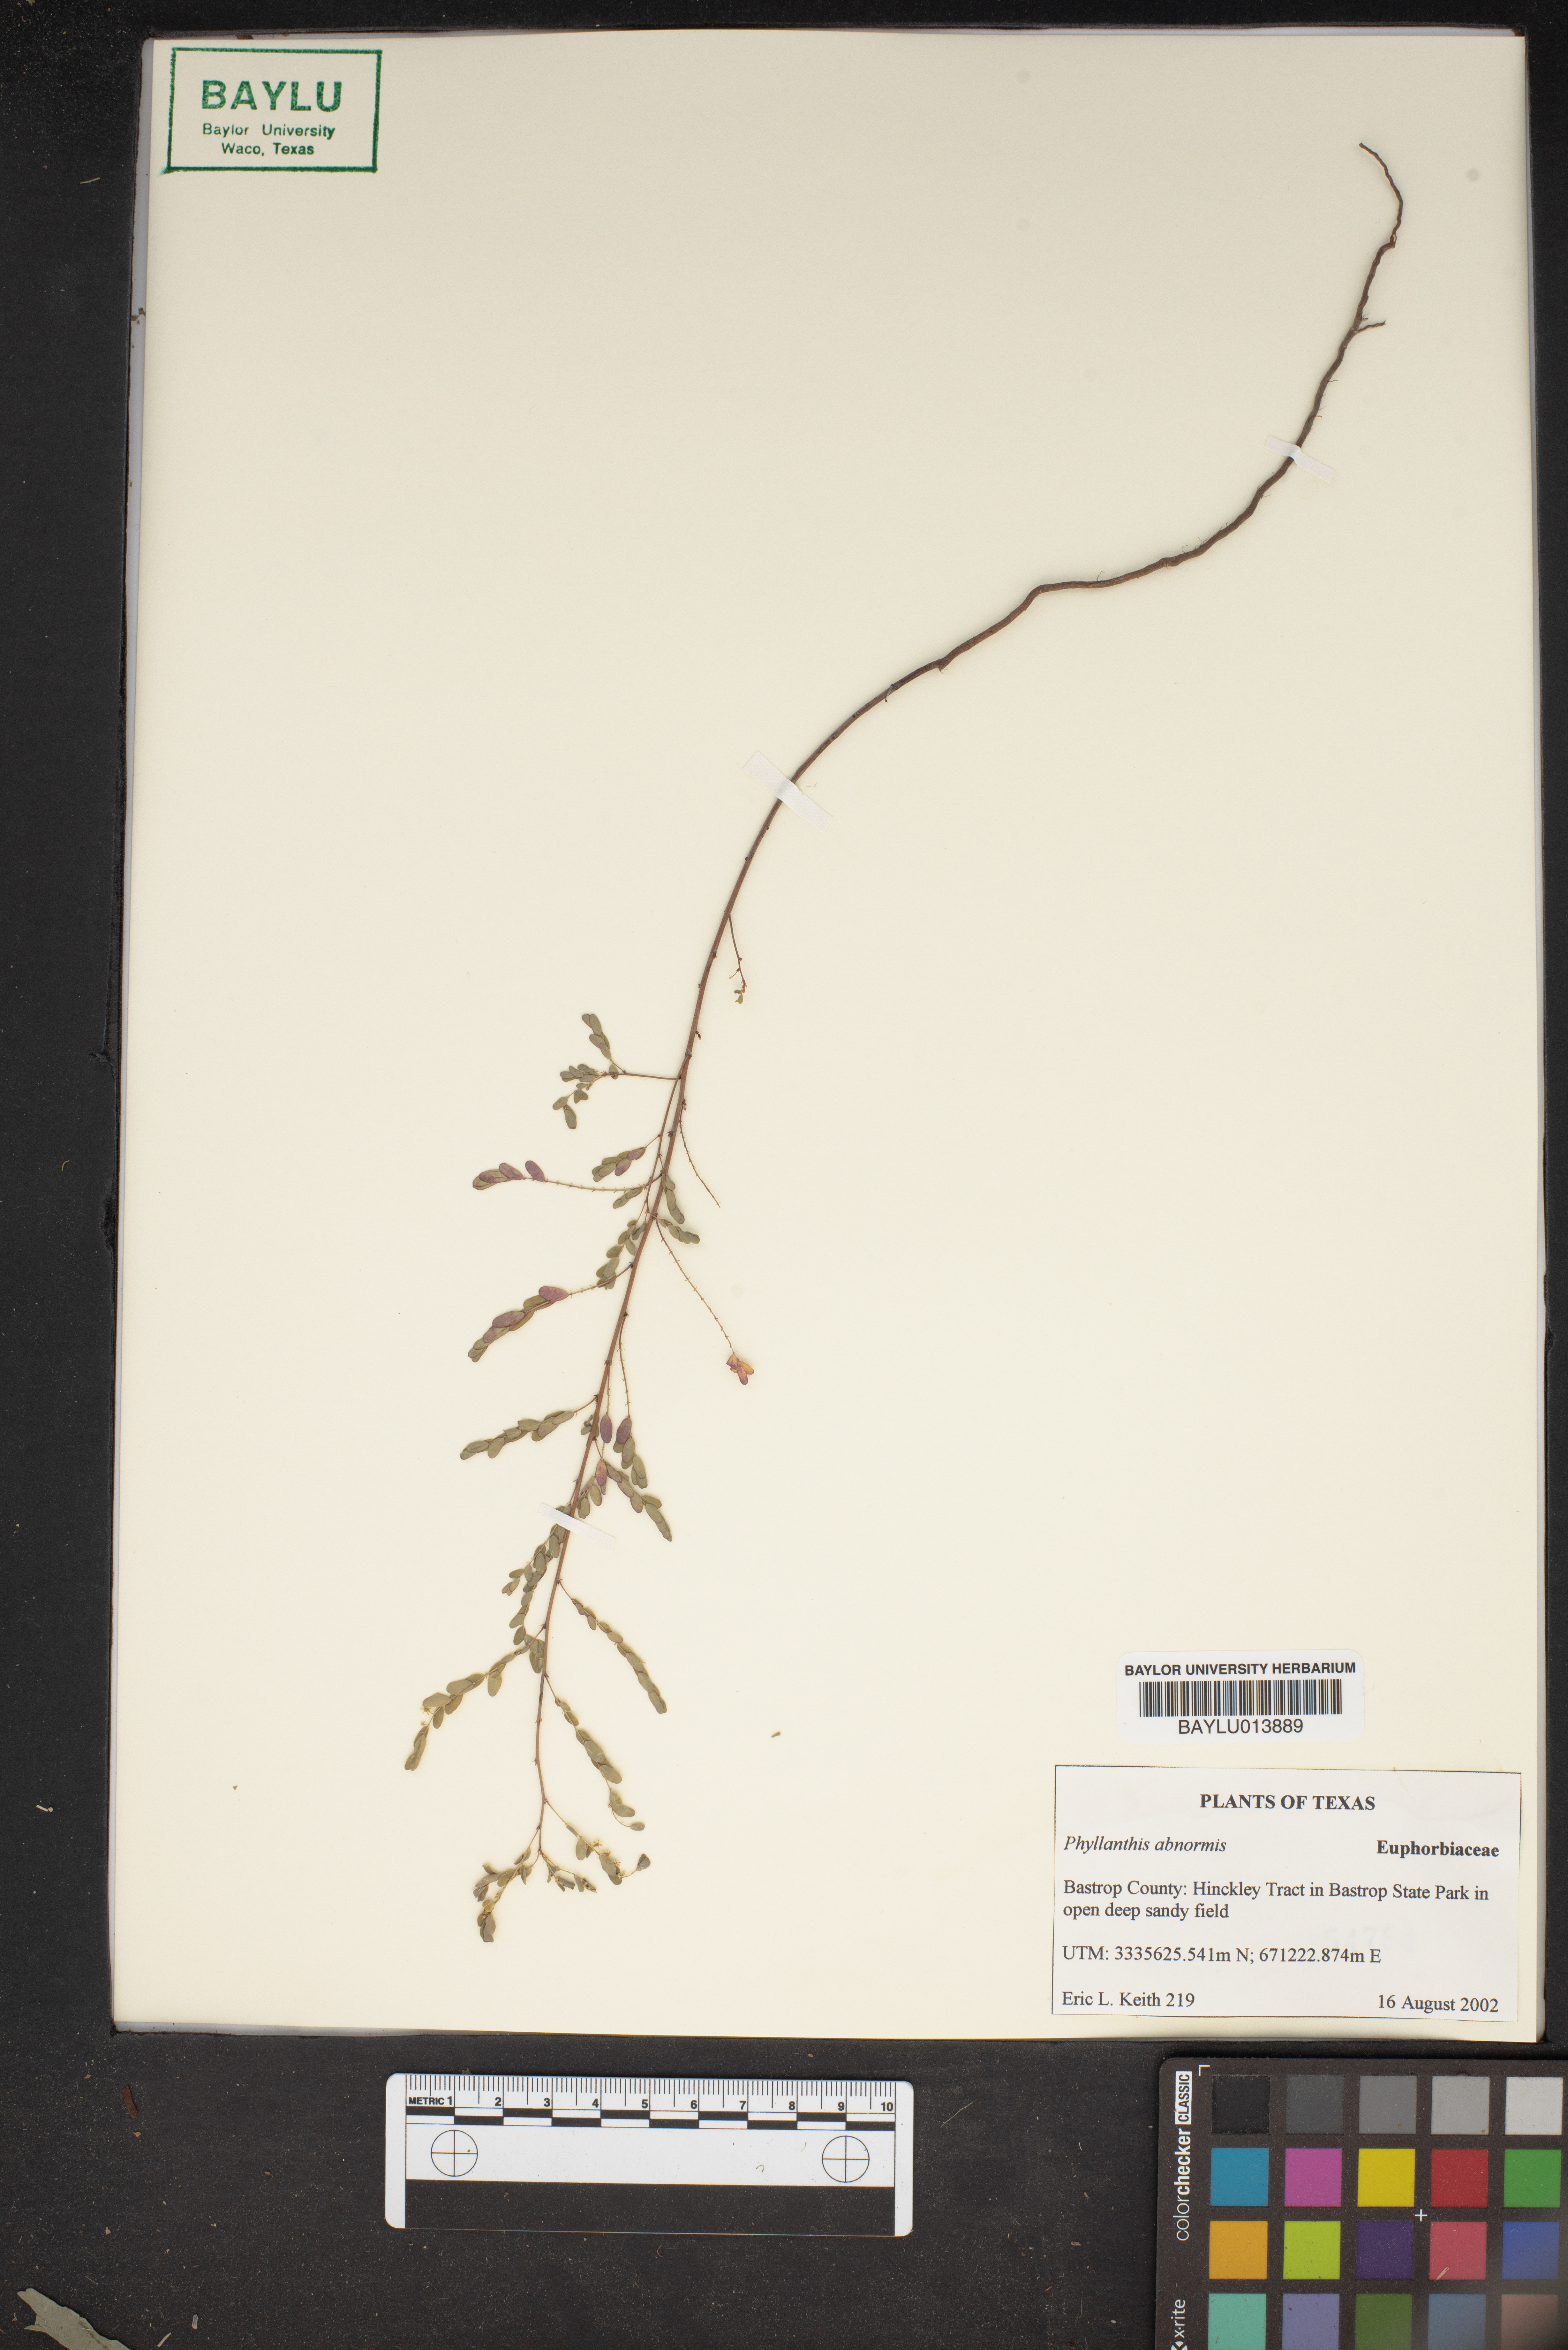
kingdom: Plantae
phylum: Tracheophyta
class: Magnoliopsida
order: Malpighiales
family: Phyllanthaceae
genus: Phyllanthus
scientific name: Phyllanthus abnormis
